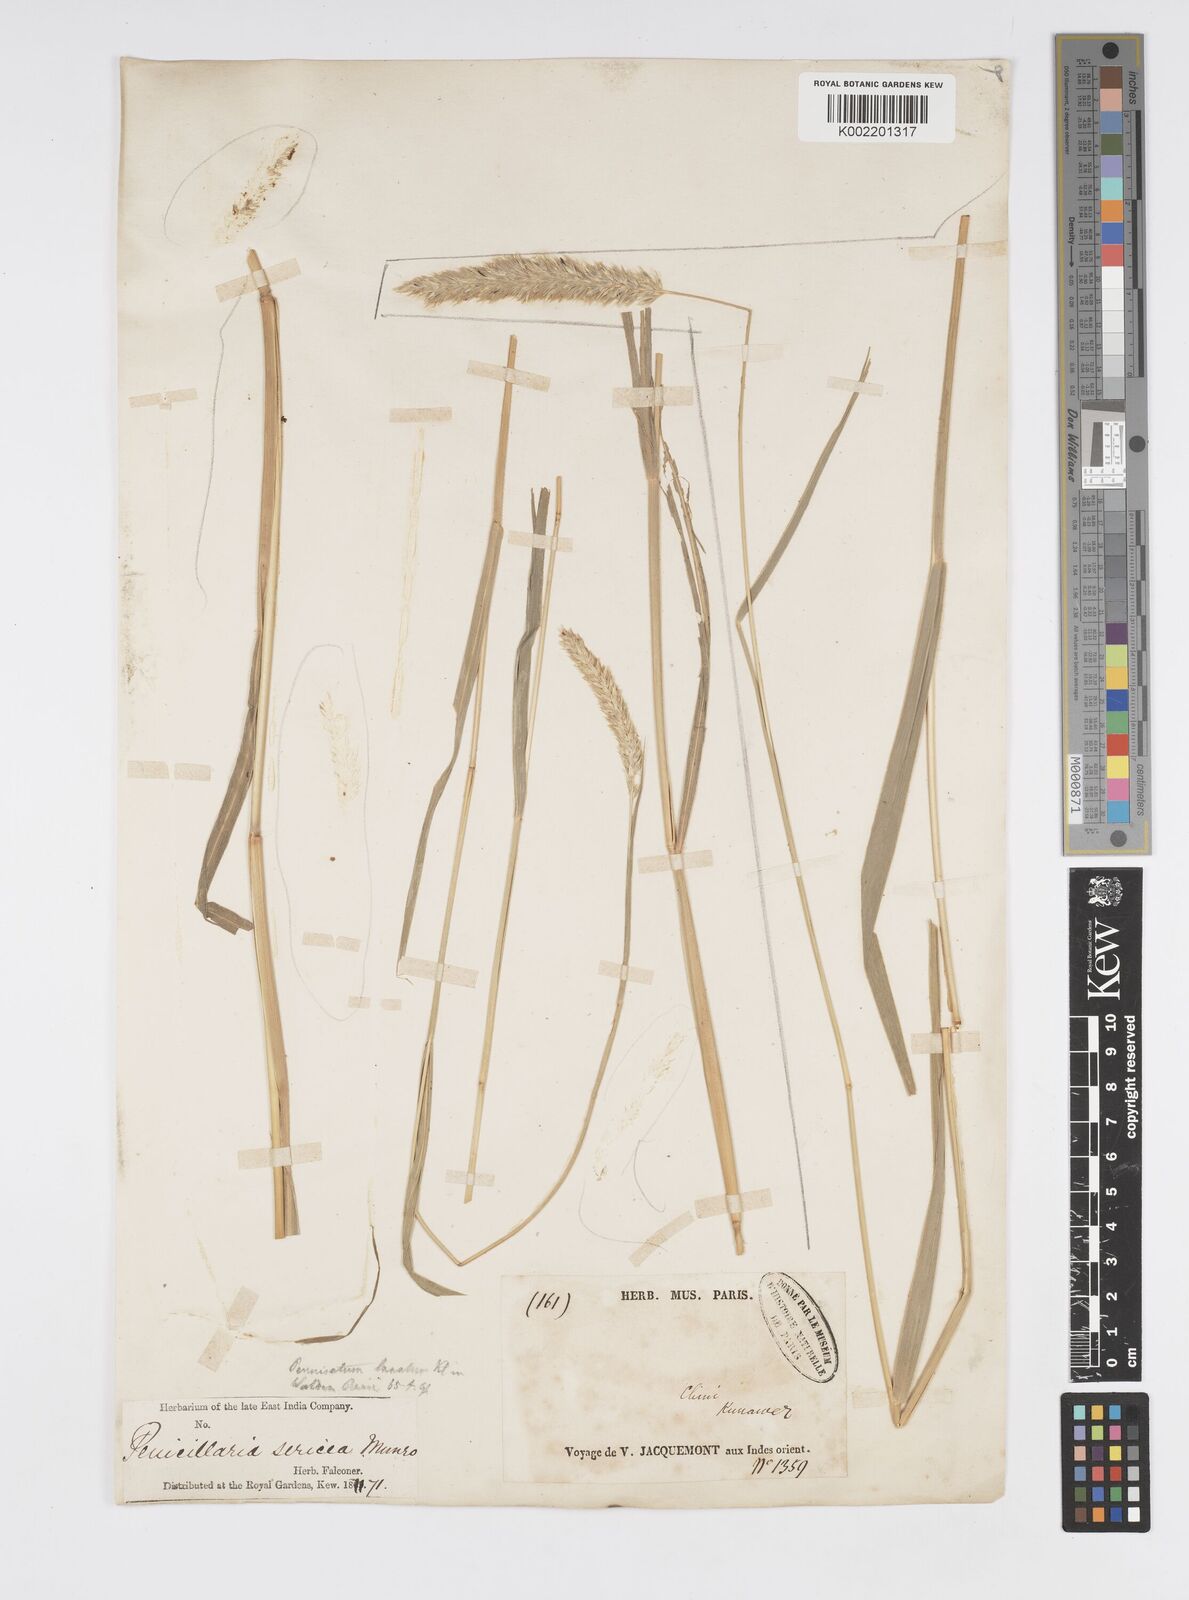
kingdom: Plantae
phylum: Tracheophyta
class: Liliopsida
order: Poales
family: Poaceae
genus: Cenchrus
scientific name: Cenchrus lanatus
